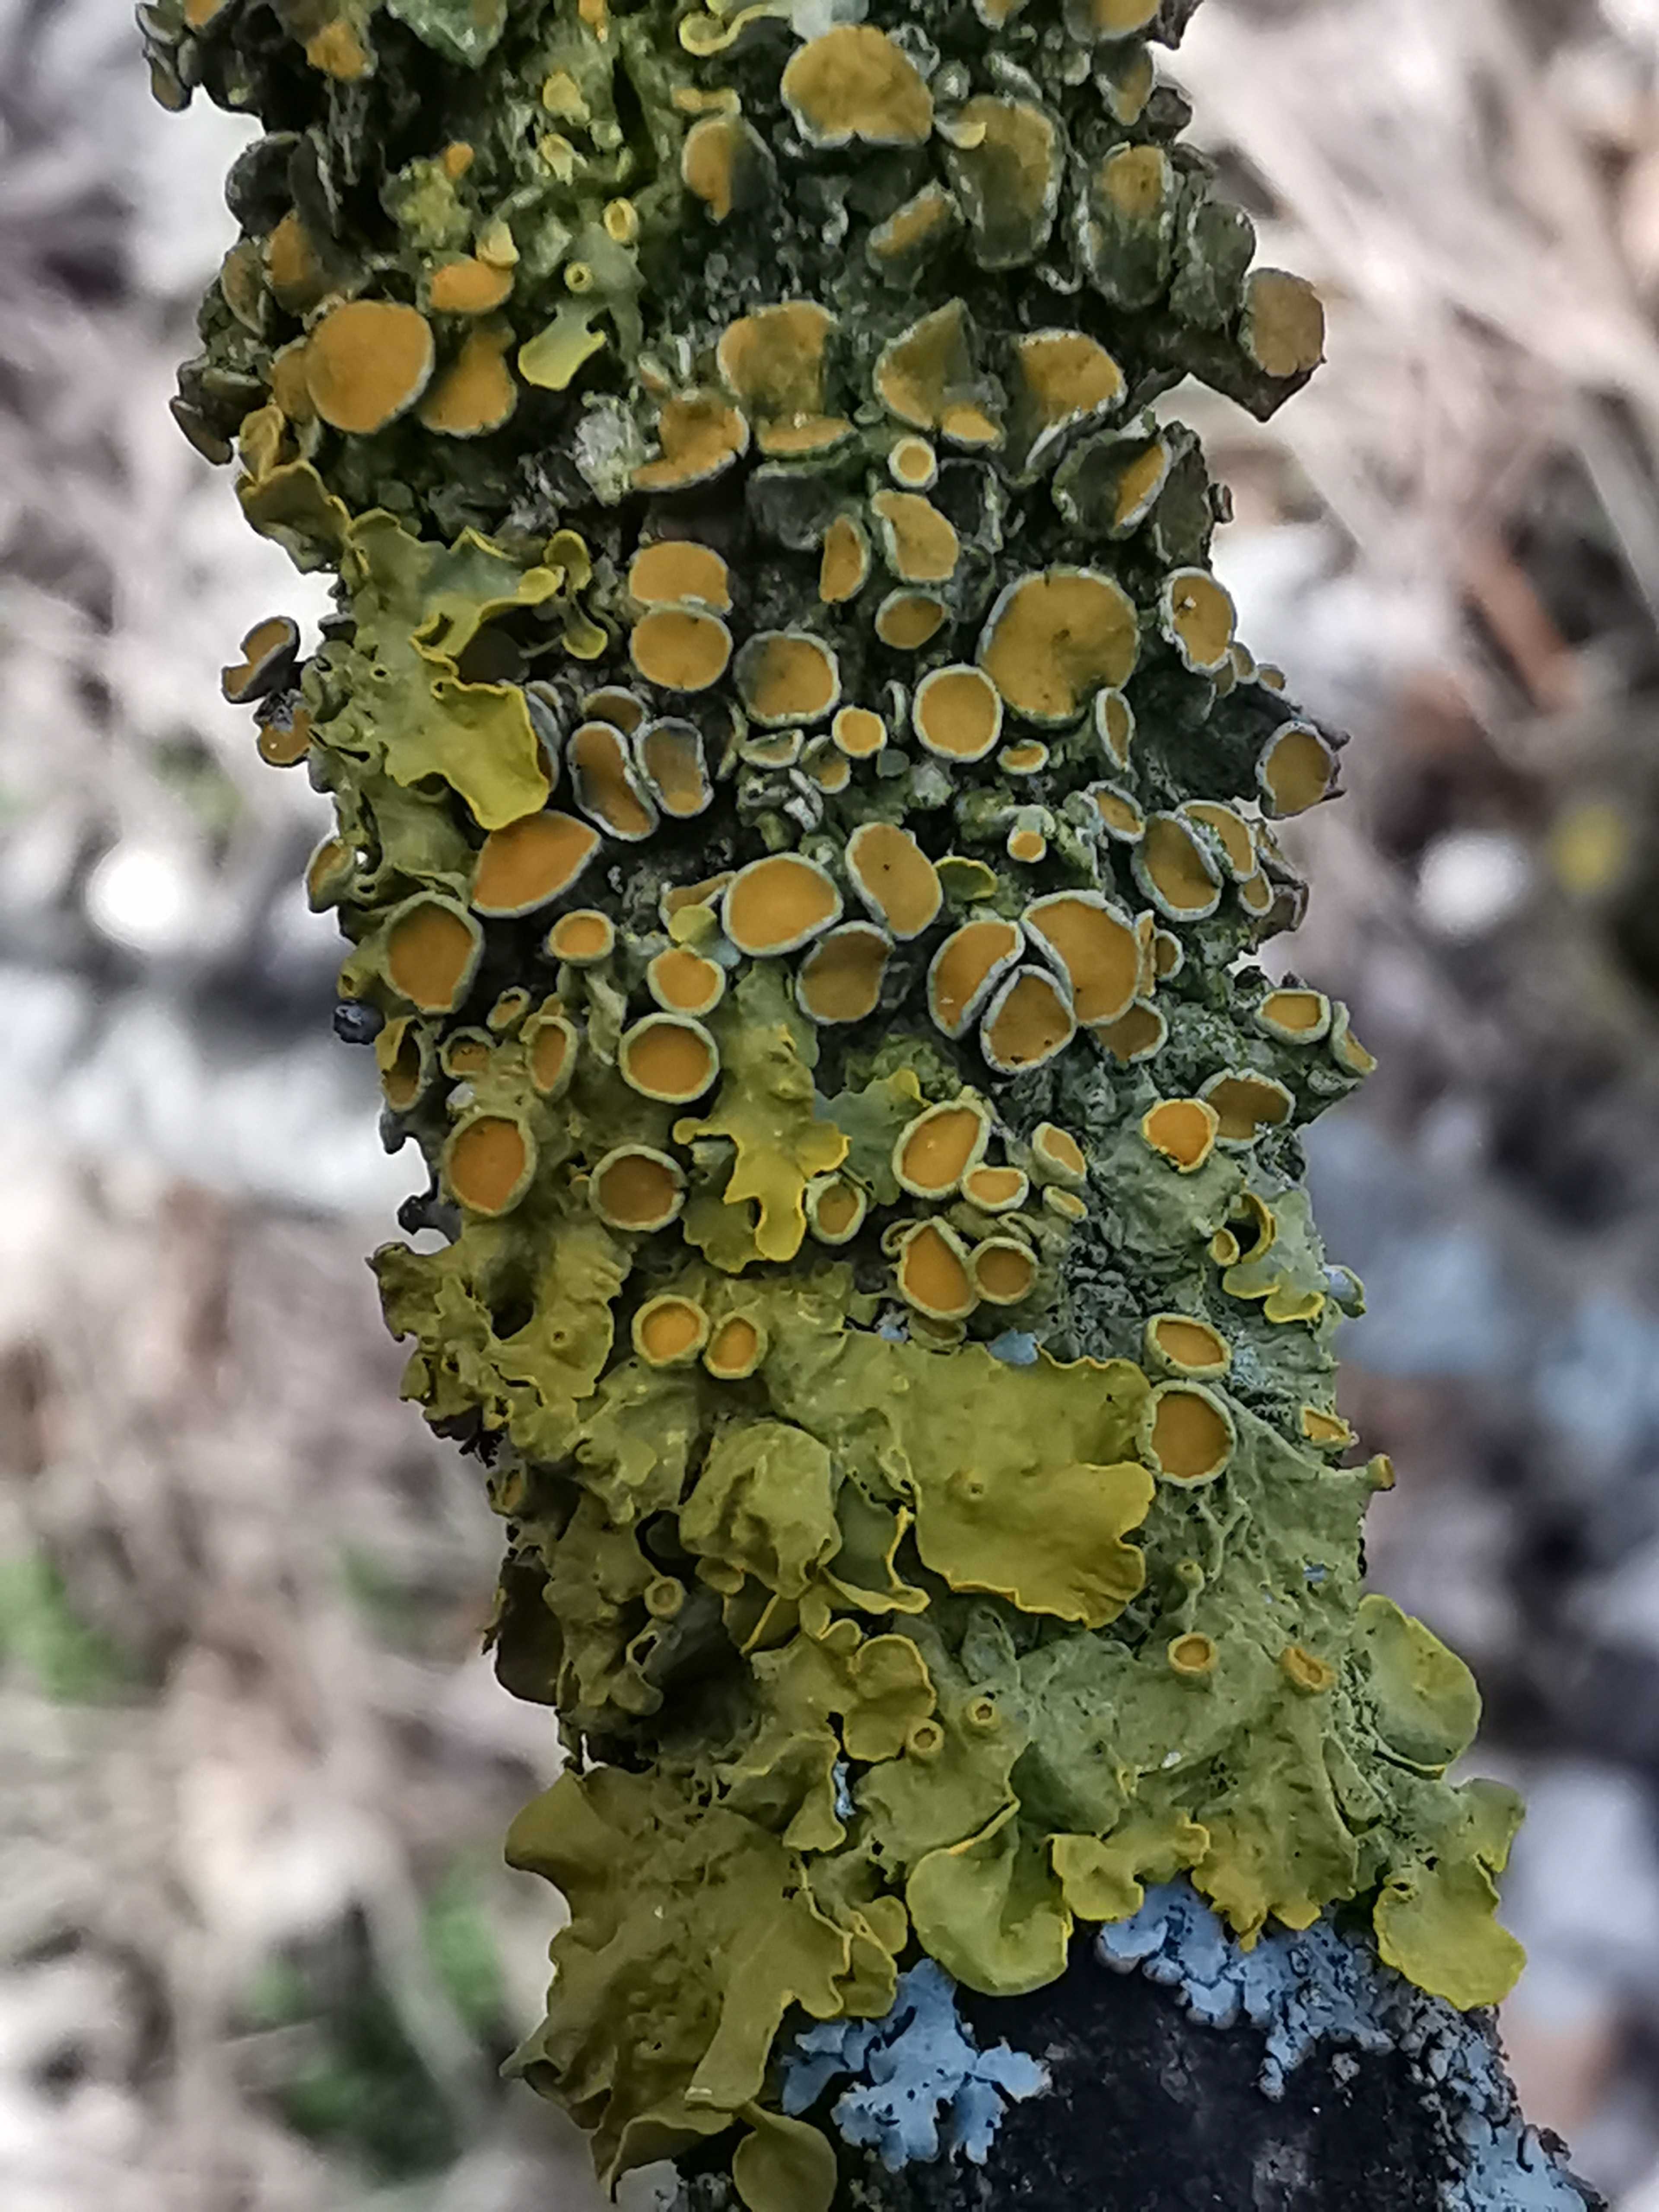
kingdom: Fungi
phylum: Ascomycota
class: Lecanoromycetes
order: Teloschistales
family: Teloschistaceae
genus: Xanthoria
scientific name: Xanthoria parietina
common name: almindelig væggelav
